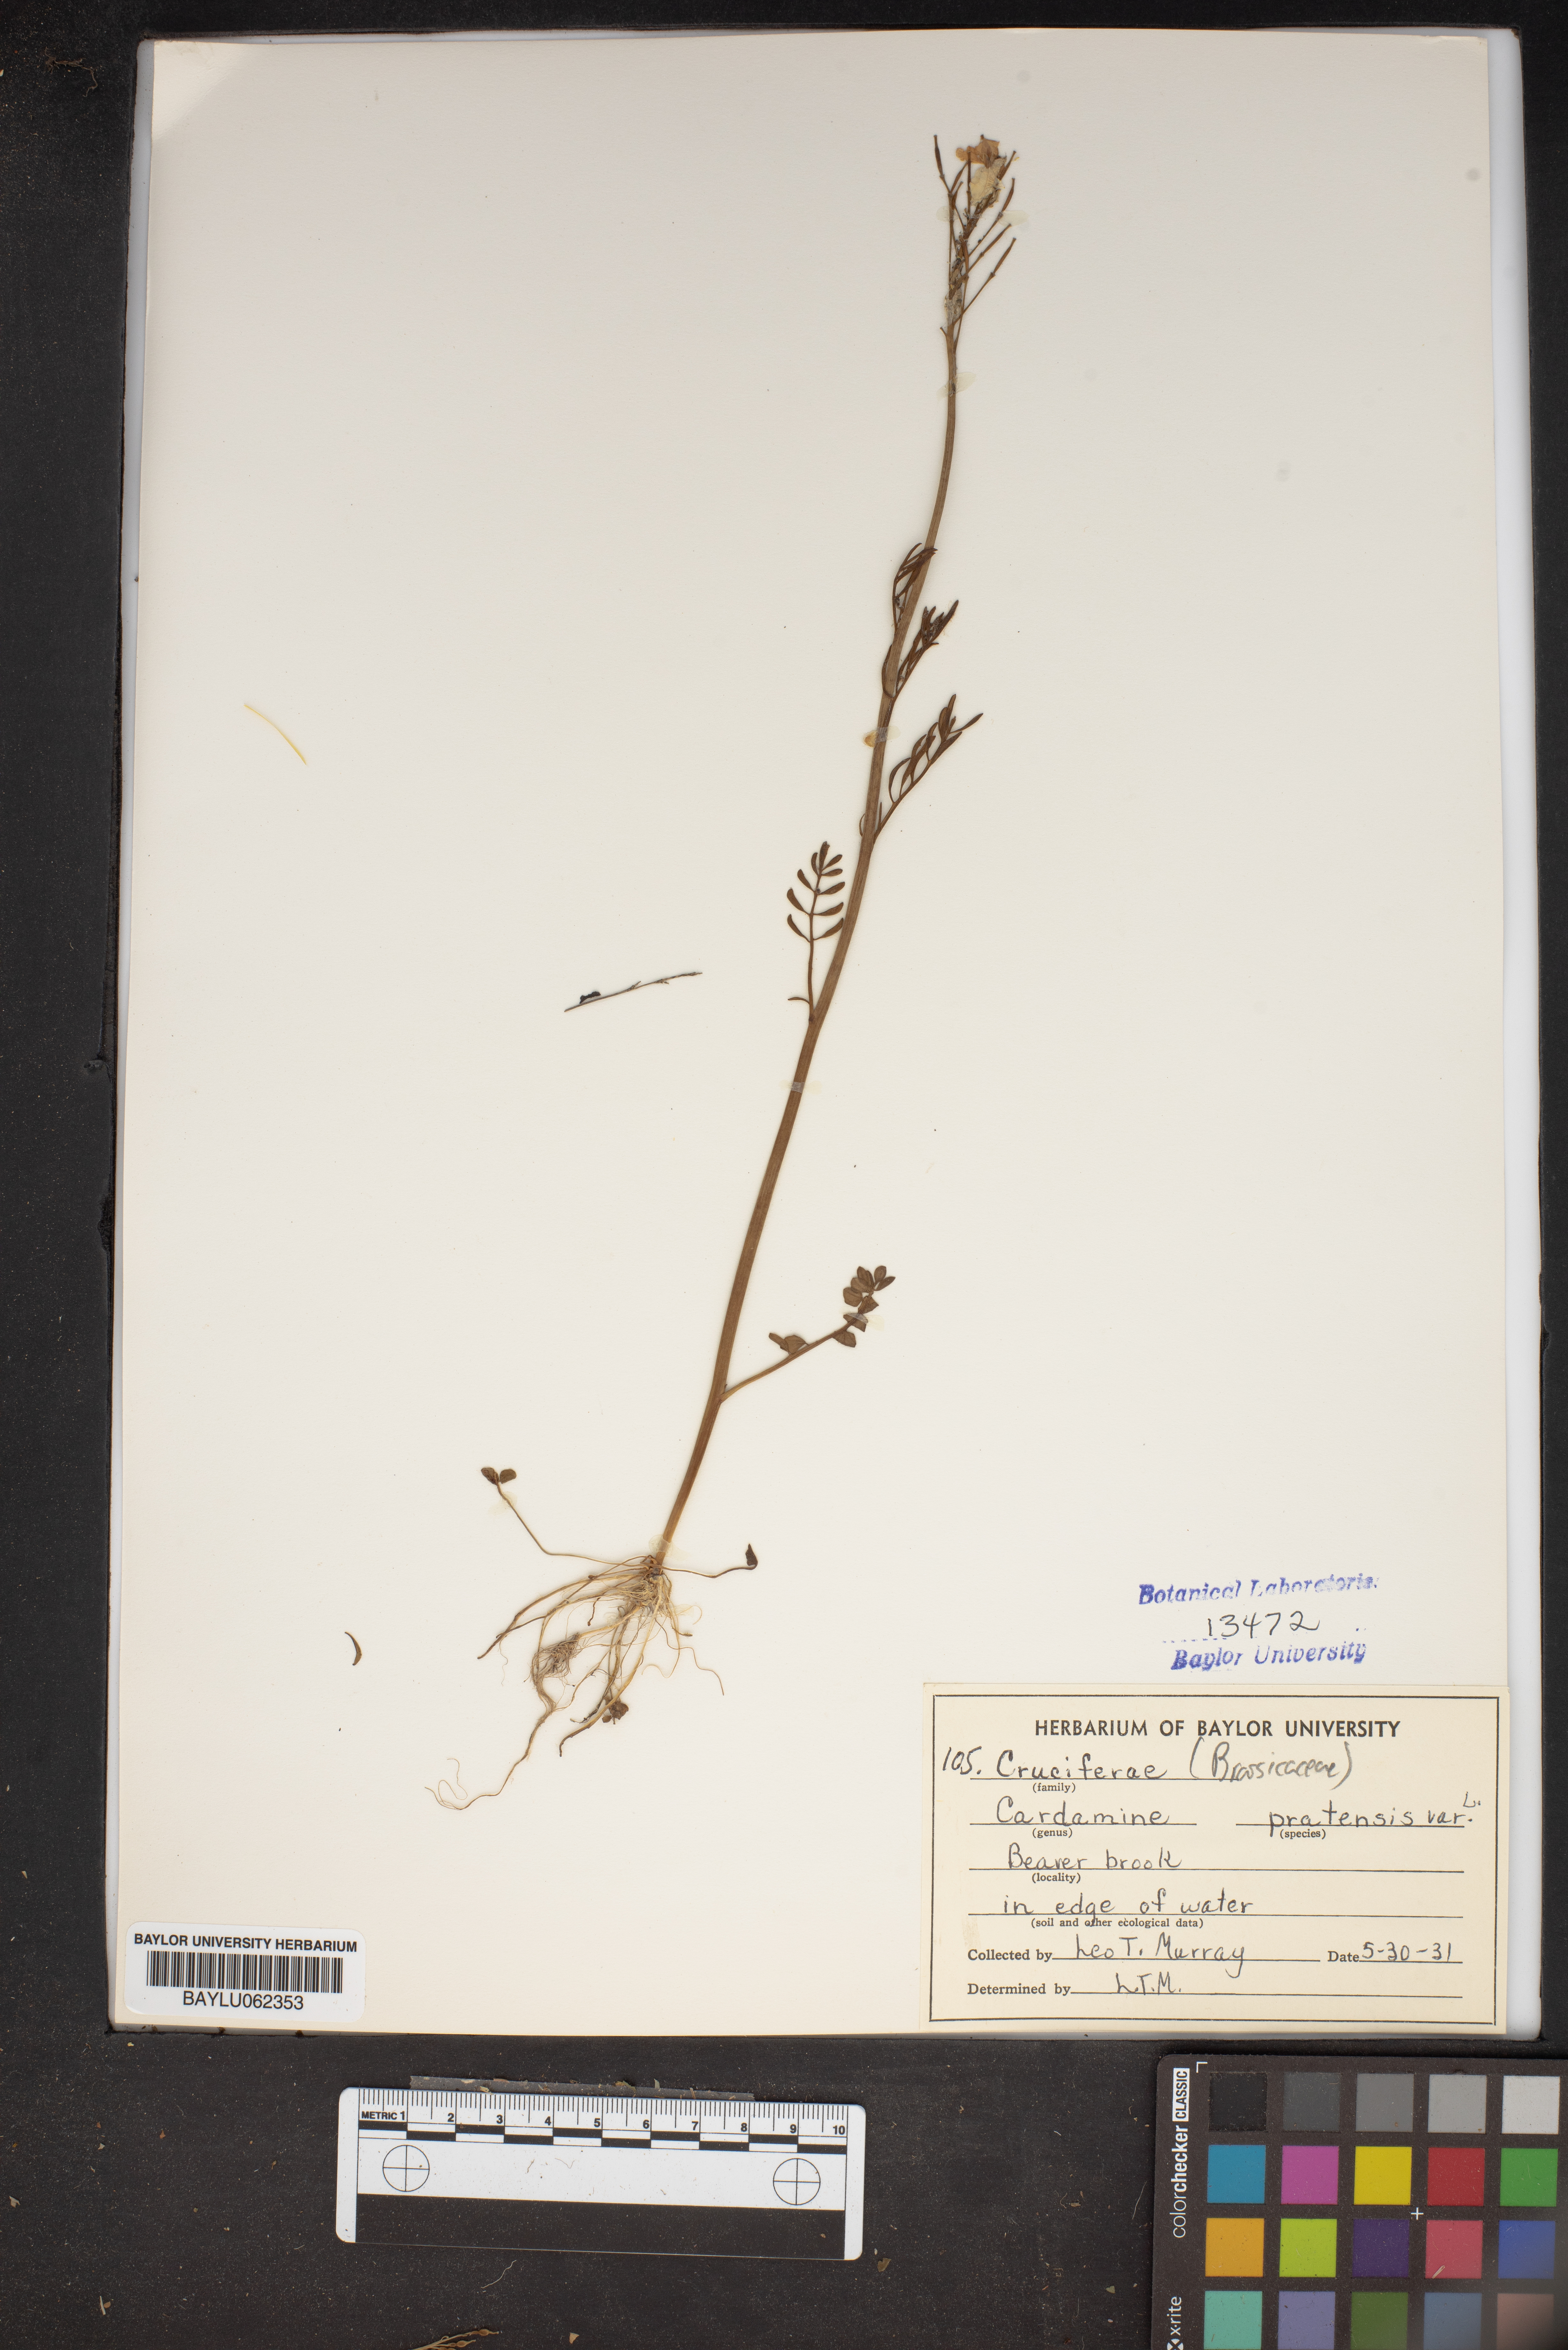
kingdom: Plantae
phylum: Tracheophyta
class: Magnoliopsida
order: Brassicales
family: Brassicaceae
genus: Cardamine
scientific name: Cardamine pratensis
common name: Cuckoo flower
